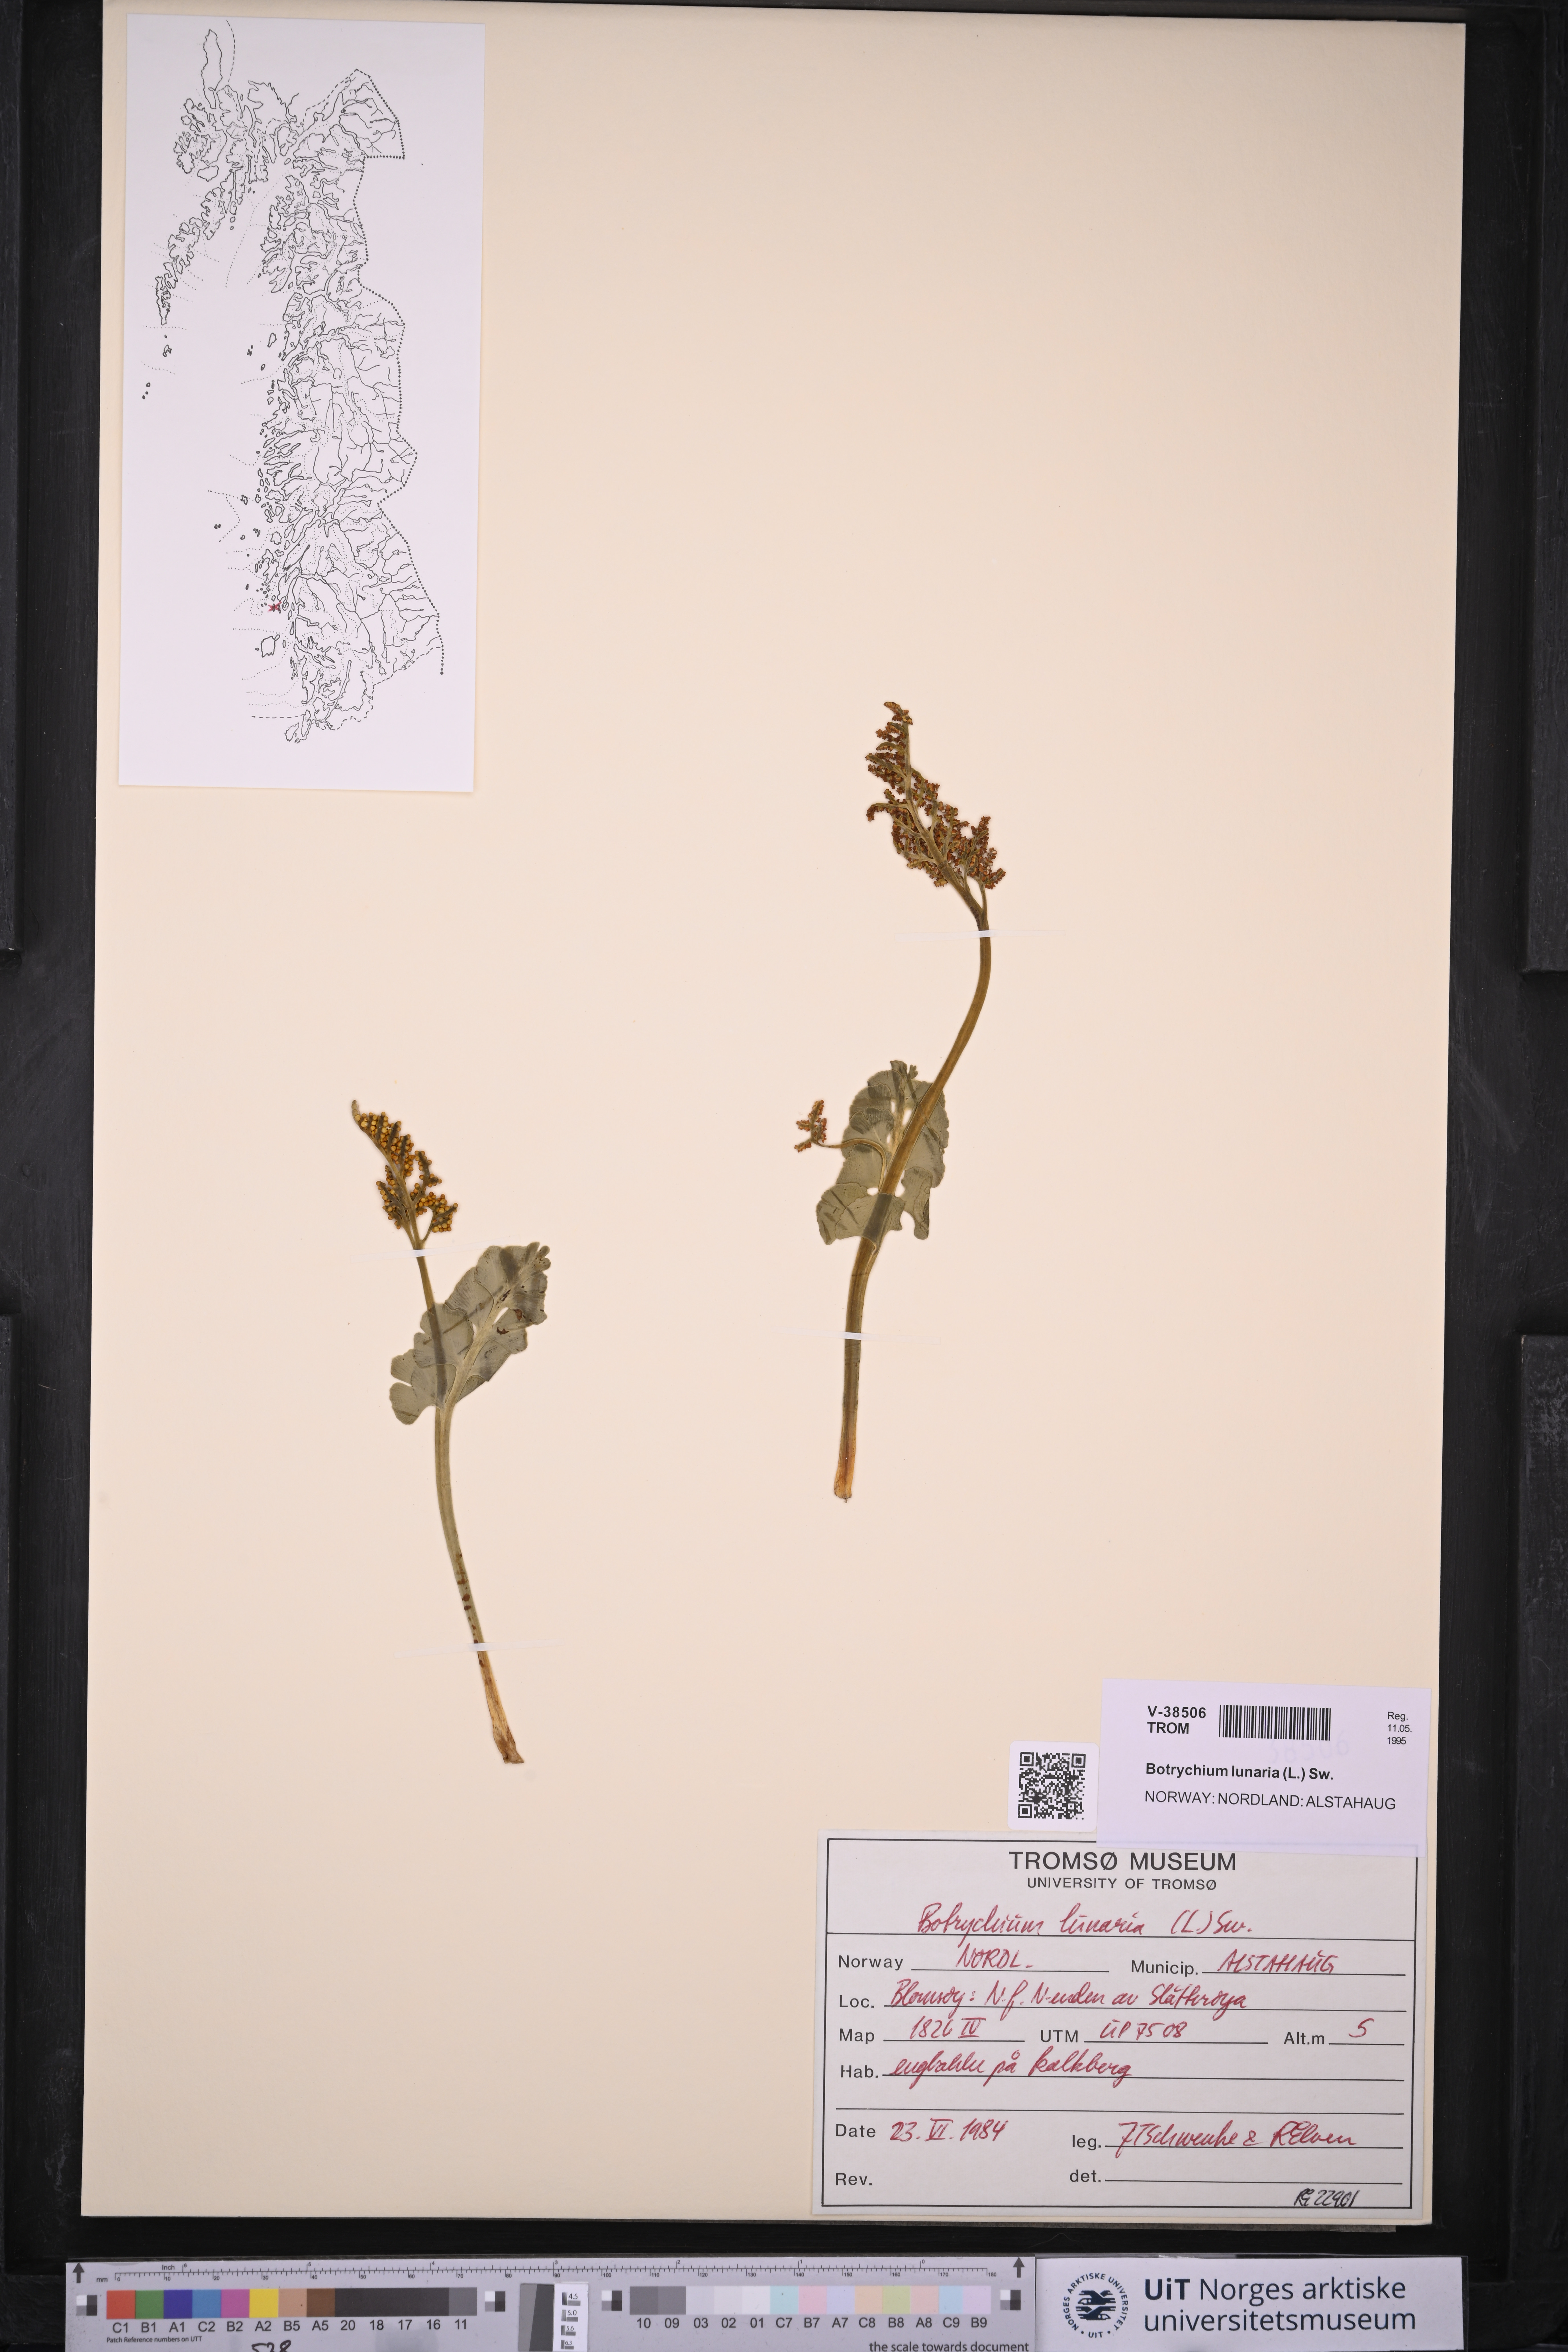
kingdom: Plantae
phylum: Tracheophyta
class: Polypodiopsida
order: Ophioglossales
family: Ophioglossaceae
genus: Botrychium
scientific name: Botrychium lunaria
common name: Moonwort
